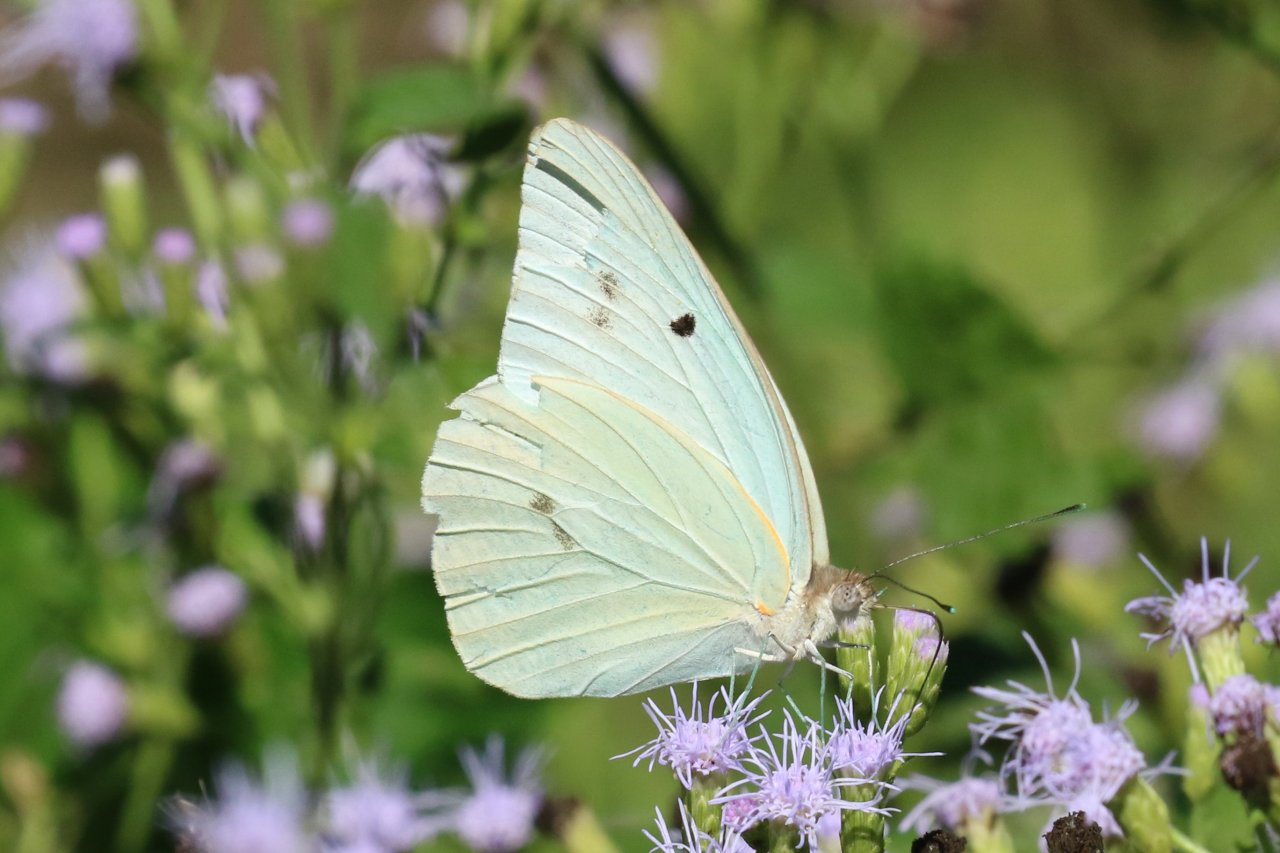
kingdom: Animalia
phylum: Arthropoda
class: Insecta
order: Lepidoptera
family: Pieridae
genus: Ganyra
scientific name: Ganyra josephina
